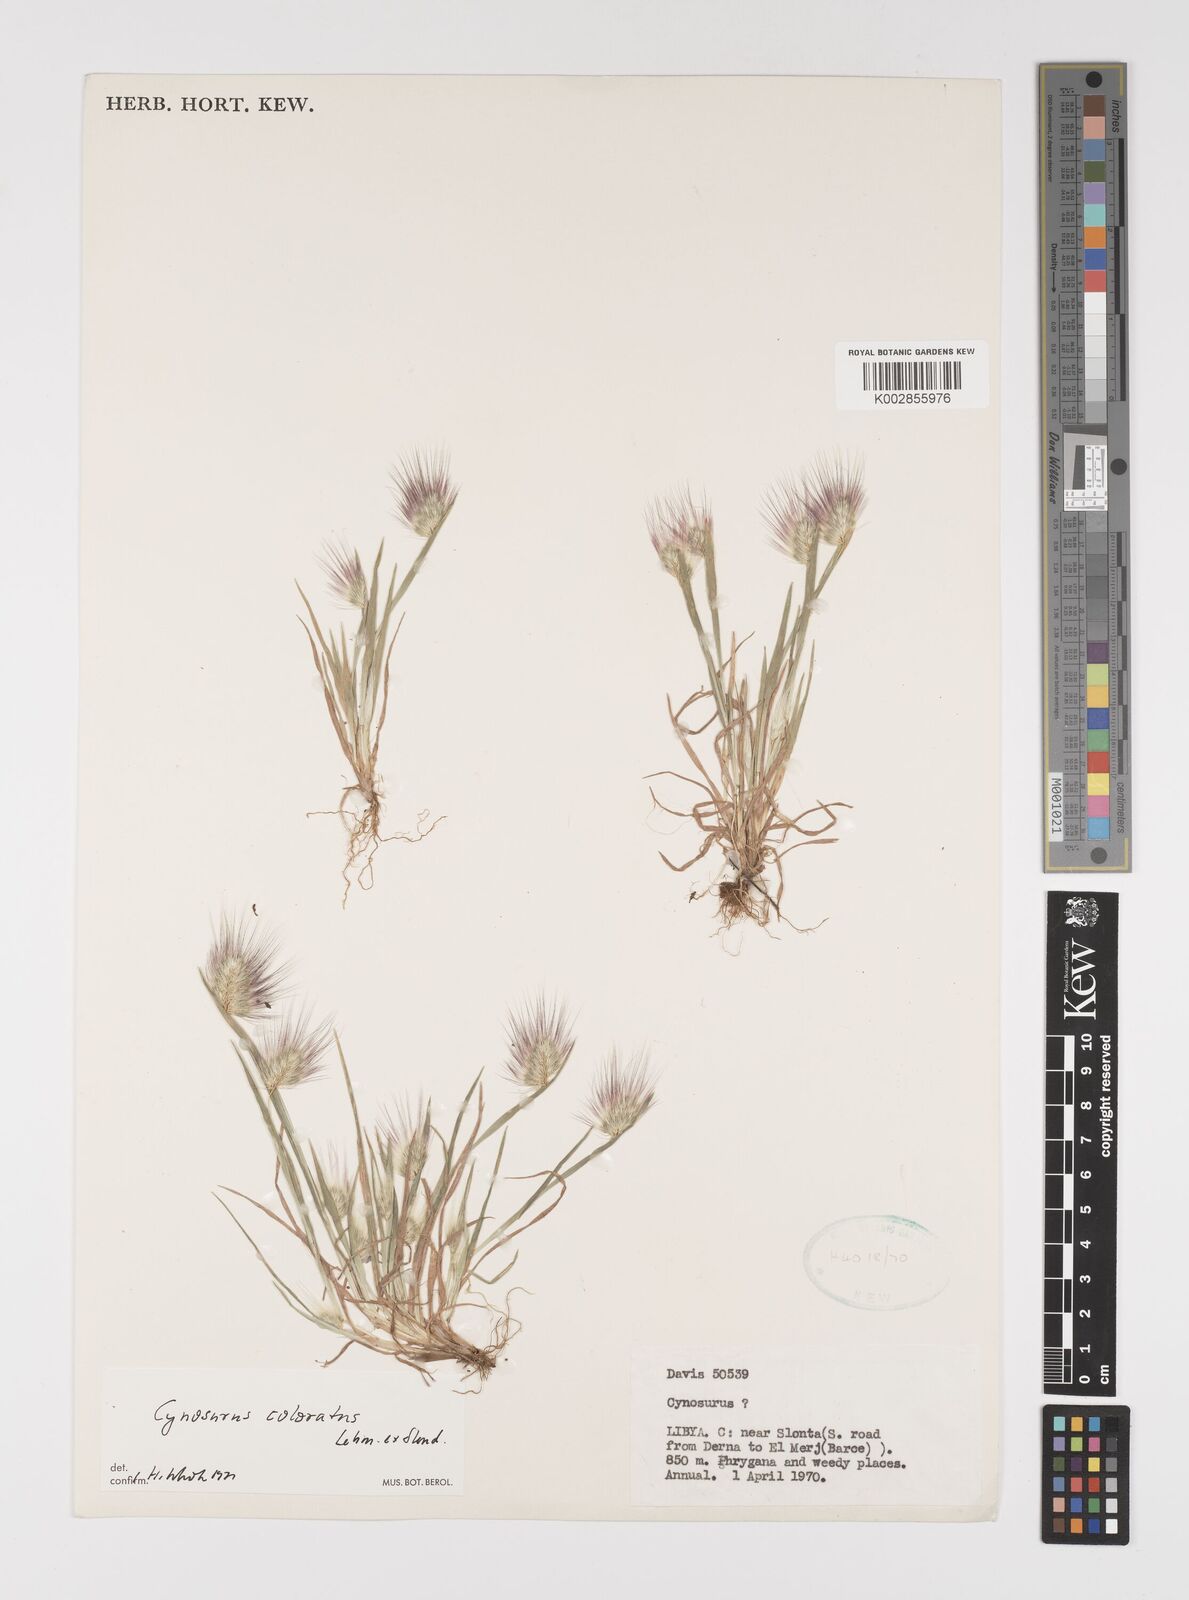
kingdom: Plantae
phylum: Tracheophyta
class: Liliopsida
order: Poales
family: Poaceae
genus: Cynosurus
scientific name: Cynosurus coloratus
